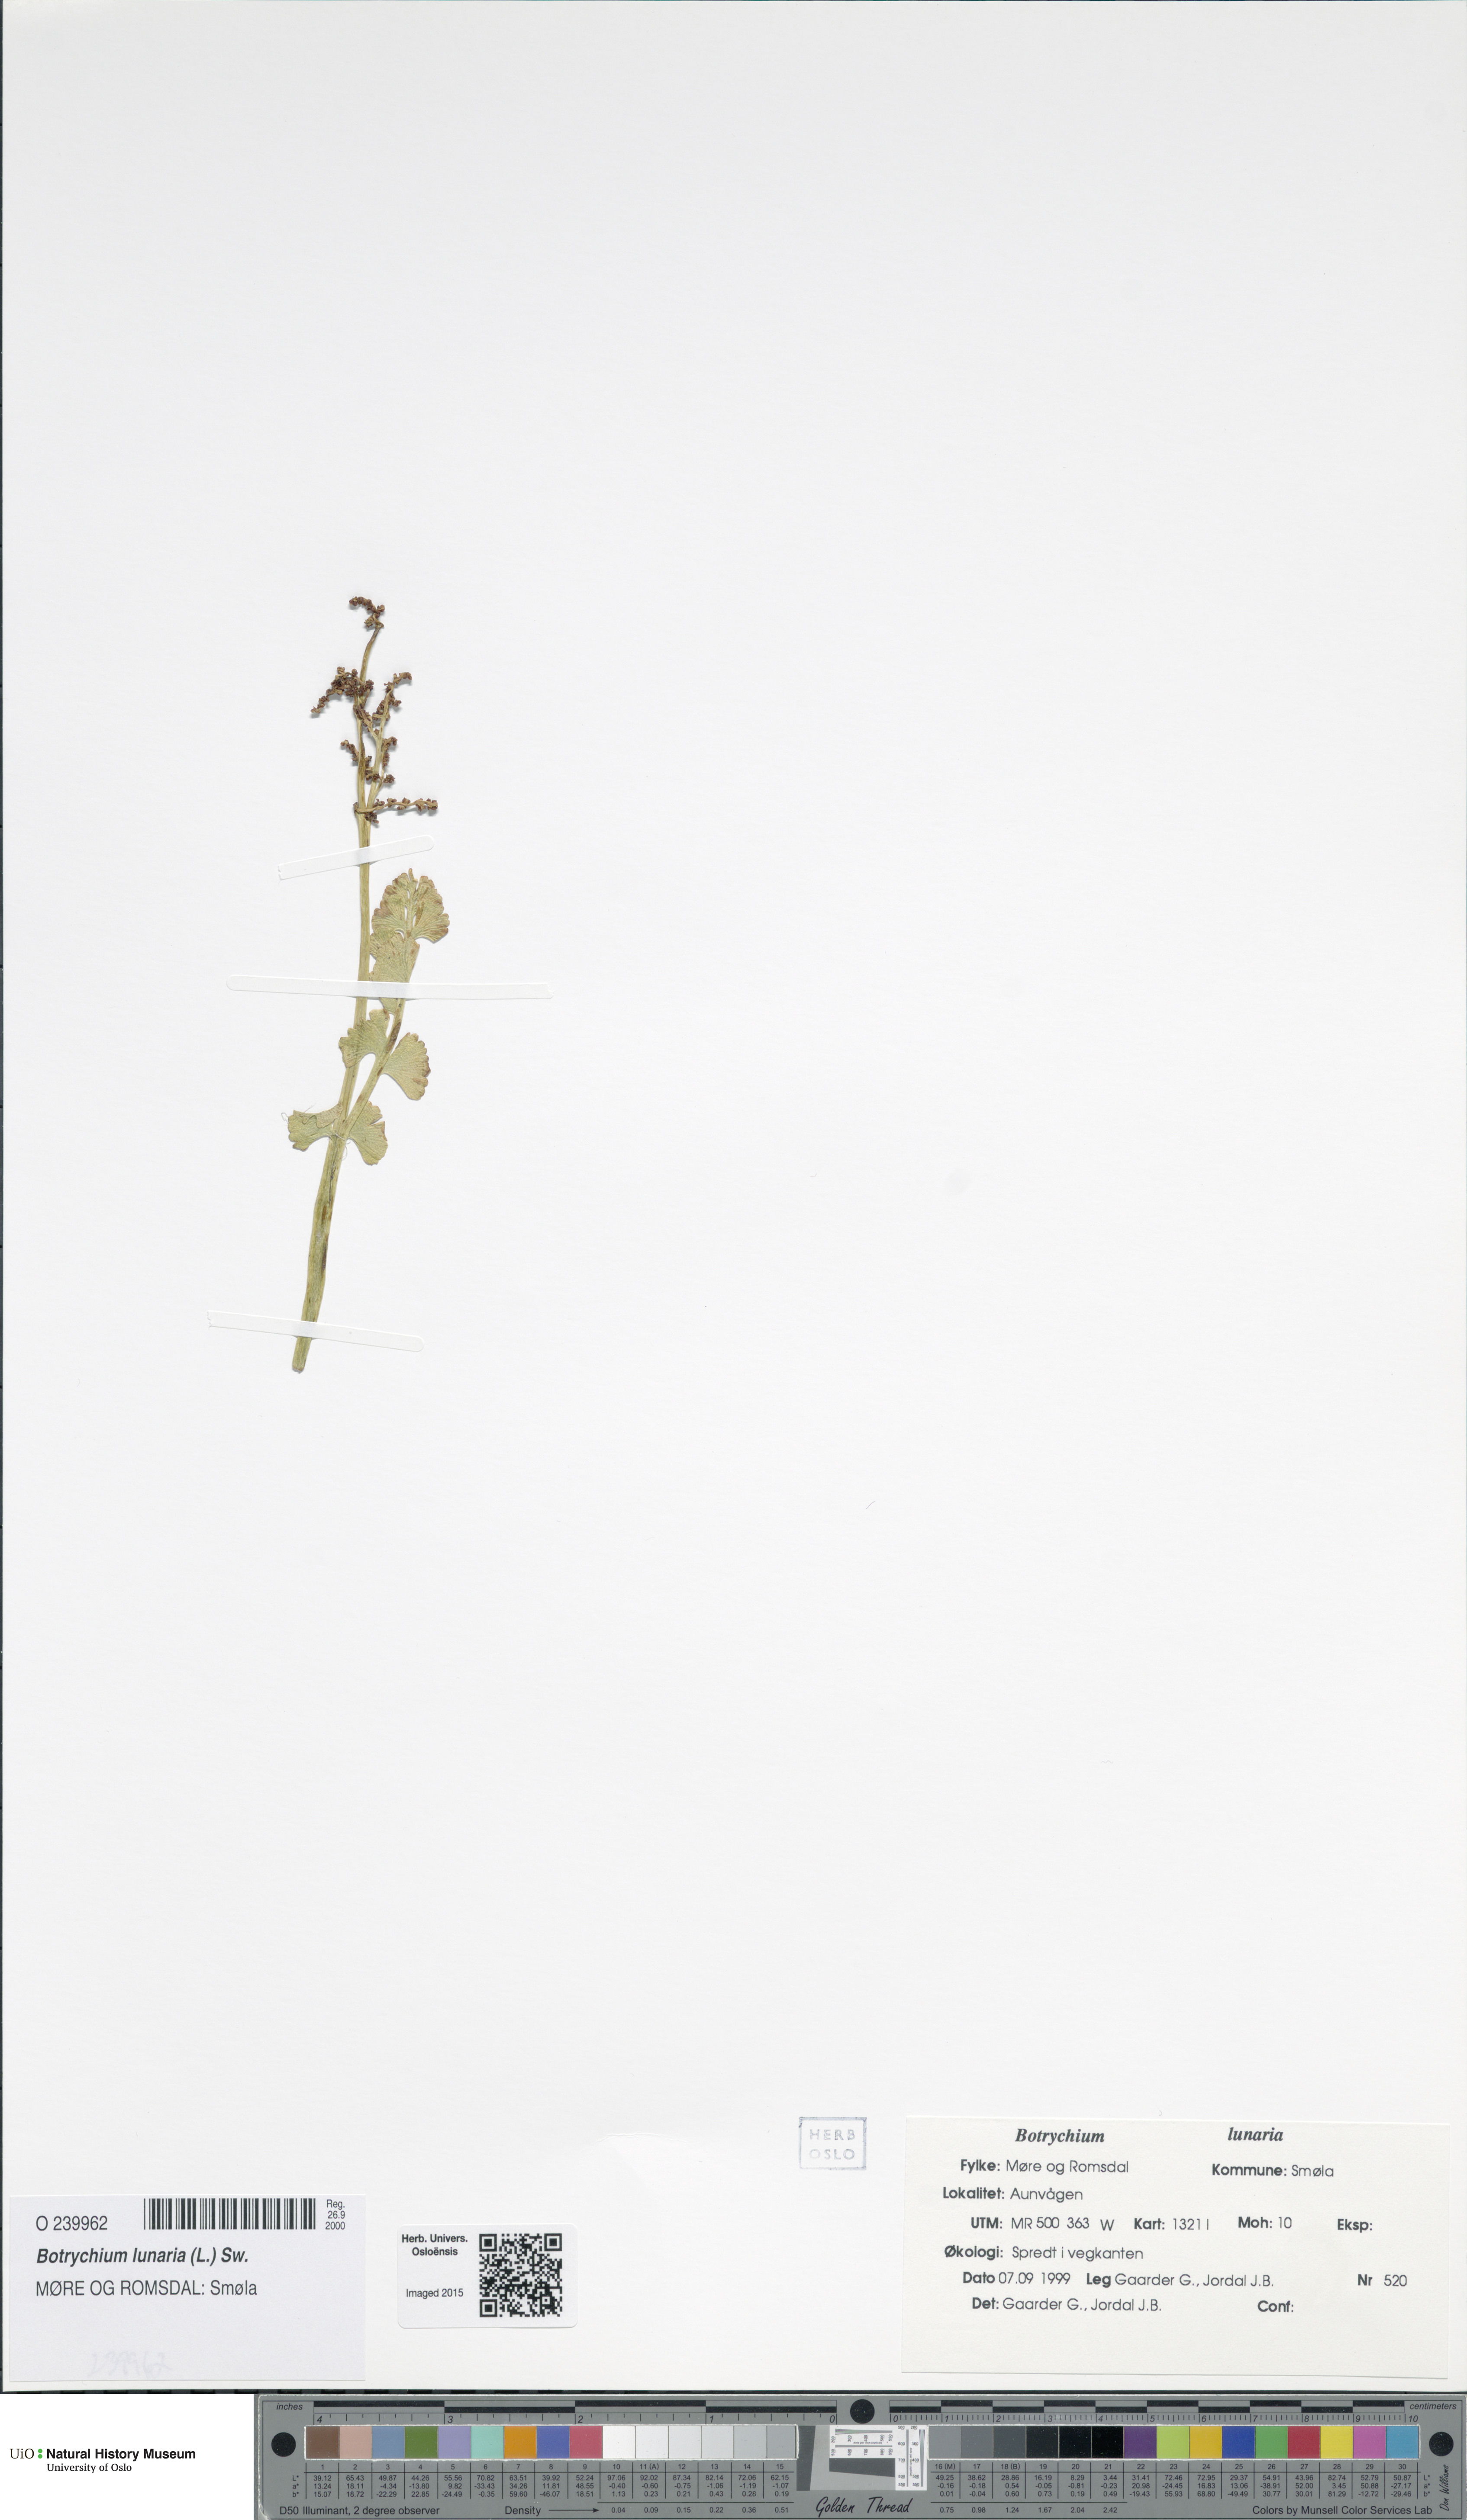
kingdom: Plantae
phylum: Tracheophyta
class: Polypodiopsida
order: Ophioglossales
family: Ophioglossaceae
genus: Botrychium
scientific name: Botrychium lunaria
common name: Moonwort
